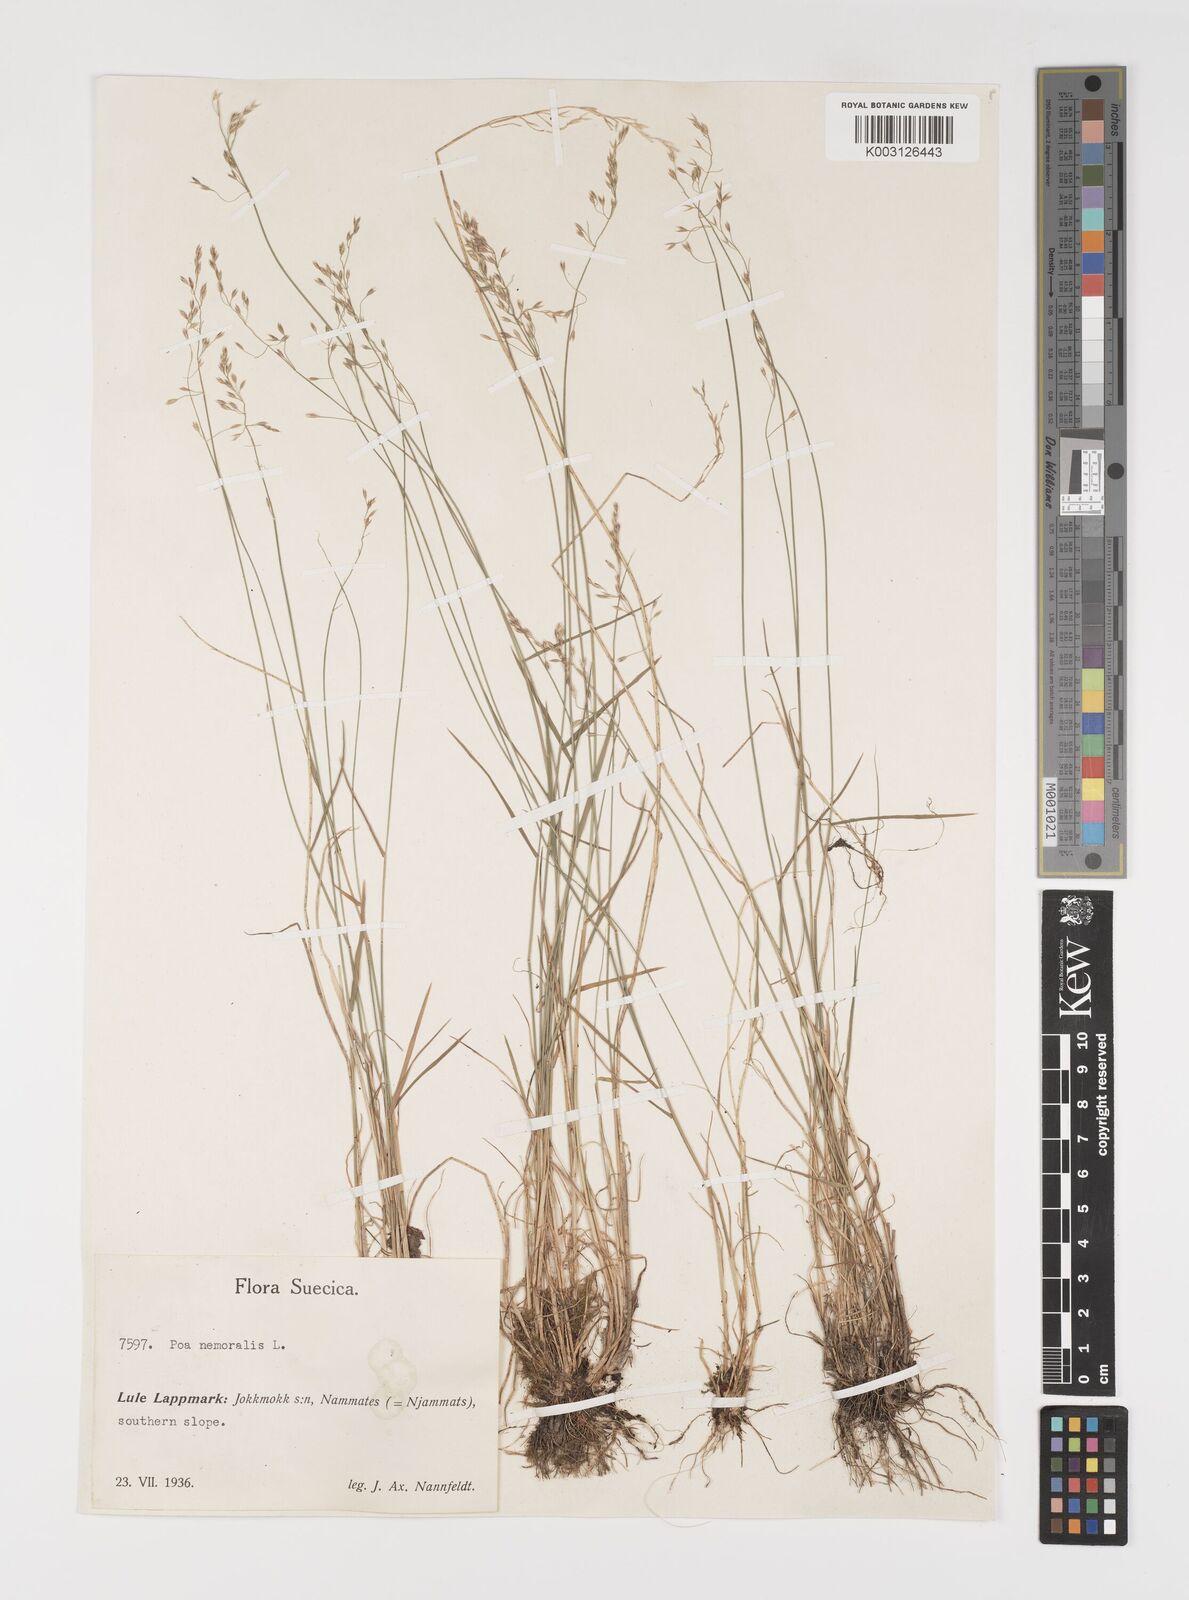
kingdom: Plantae
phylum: Tracheophyta
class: Liliopsida
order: Poales
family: Poaceae
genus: Poa
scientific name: Poa nemoralis
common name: Wood bluegrass
